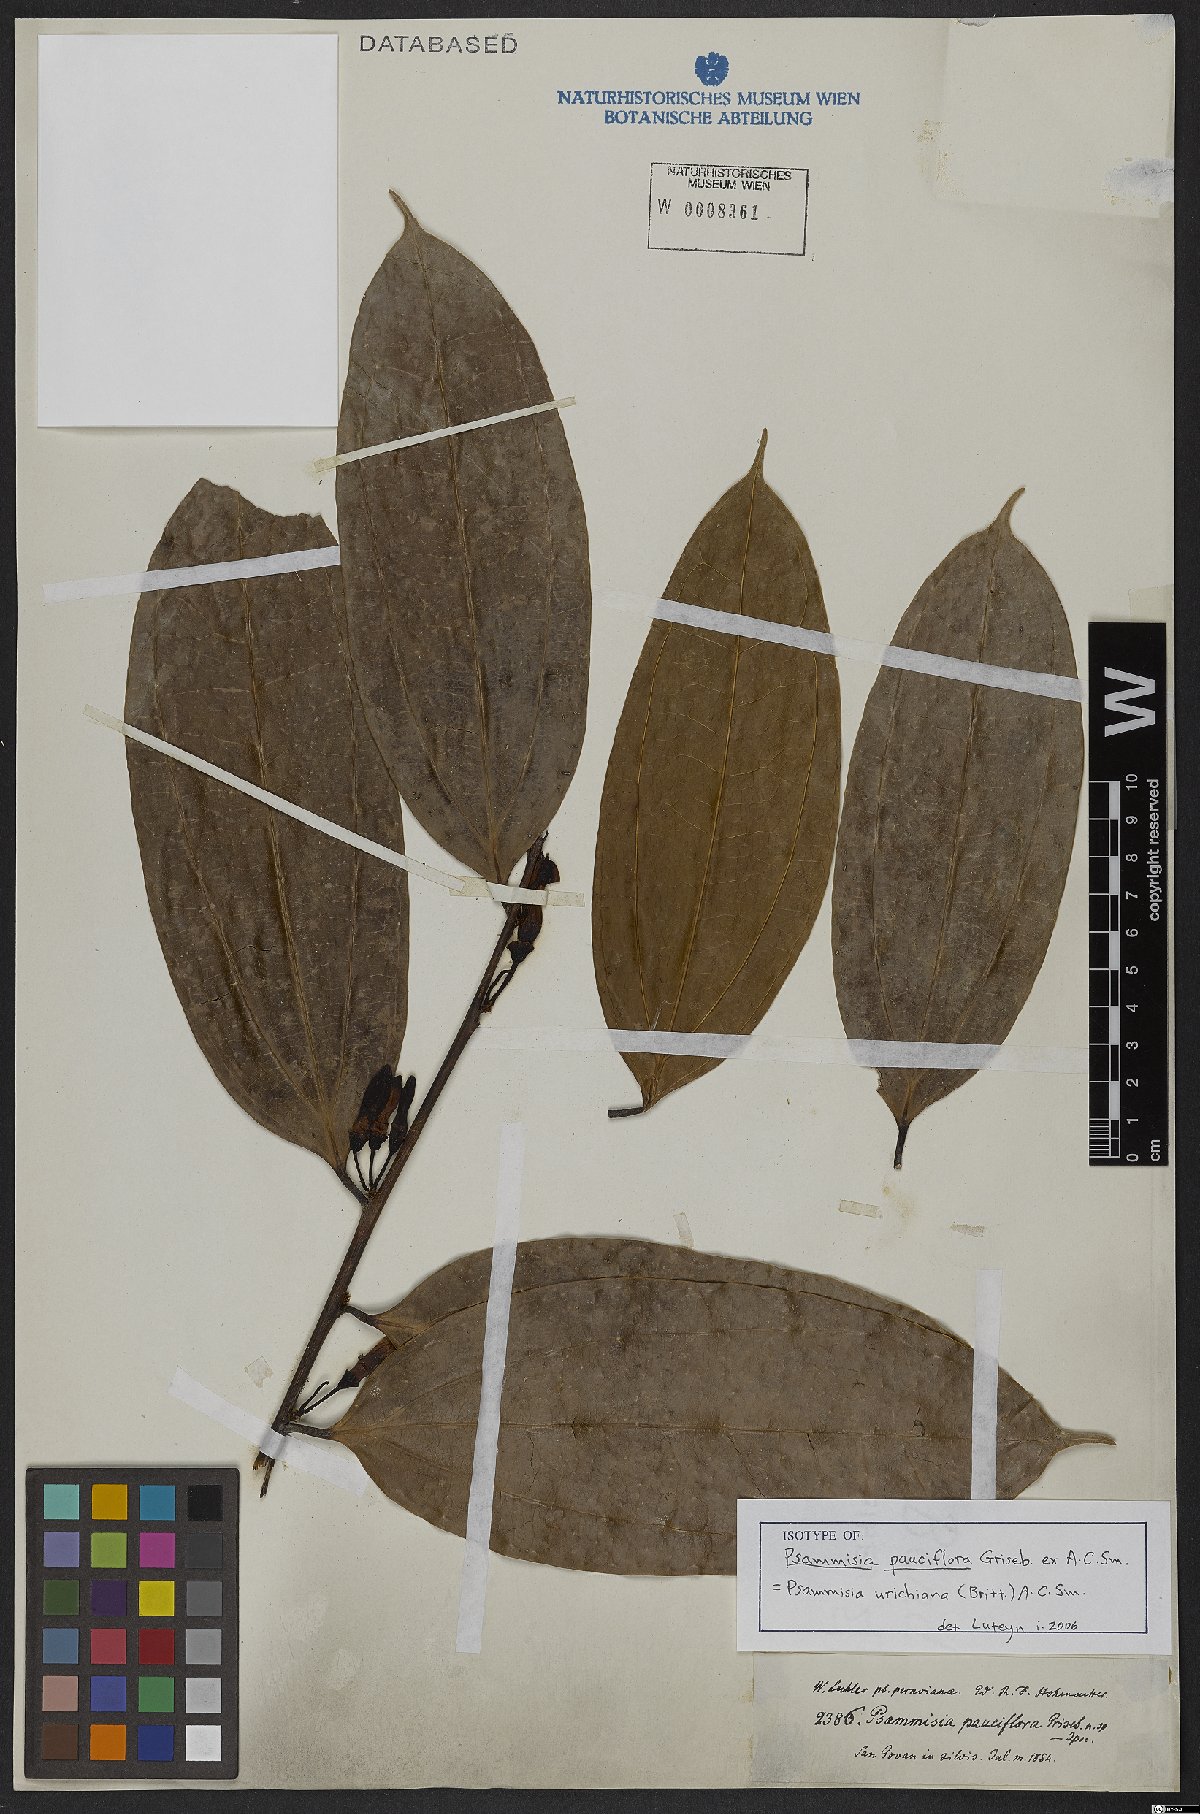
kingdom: Plantae
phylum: Tracheophyta
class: Magnoliopsida
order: Ericales
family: Ericaceae
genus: Psammisia
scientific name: Psammisia urichiana
